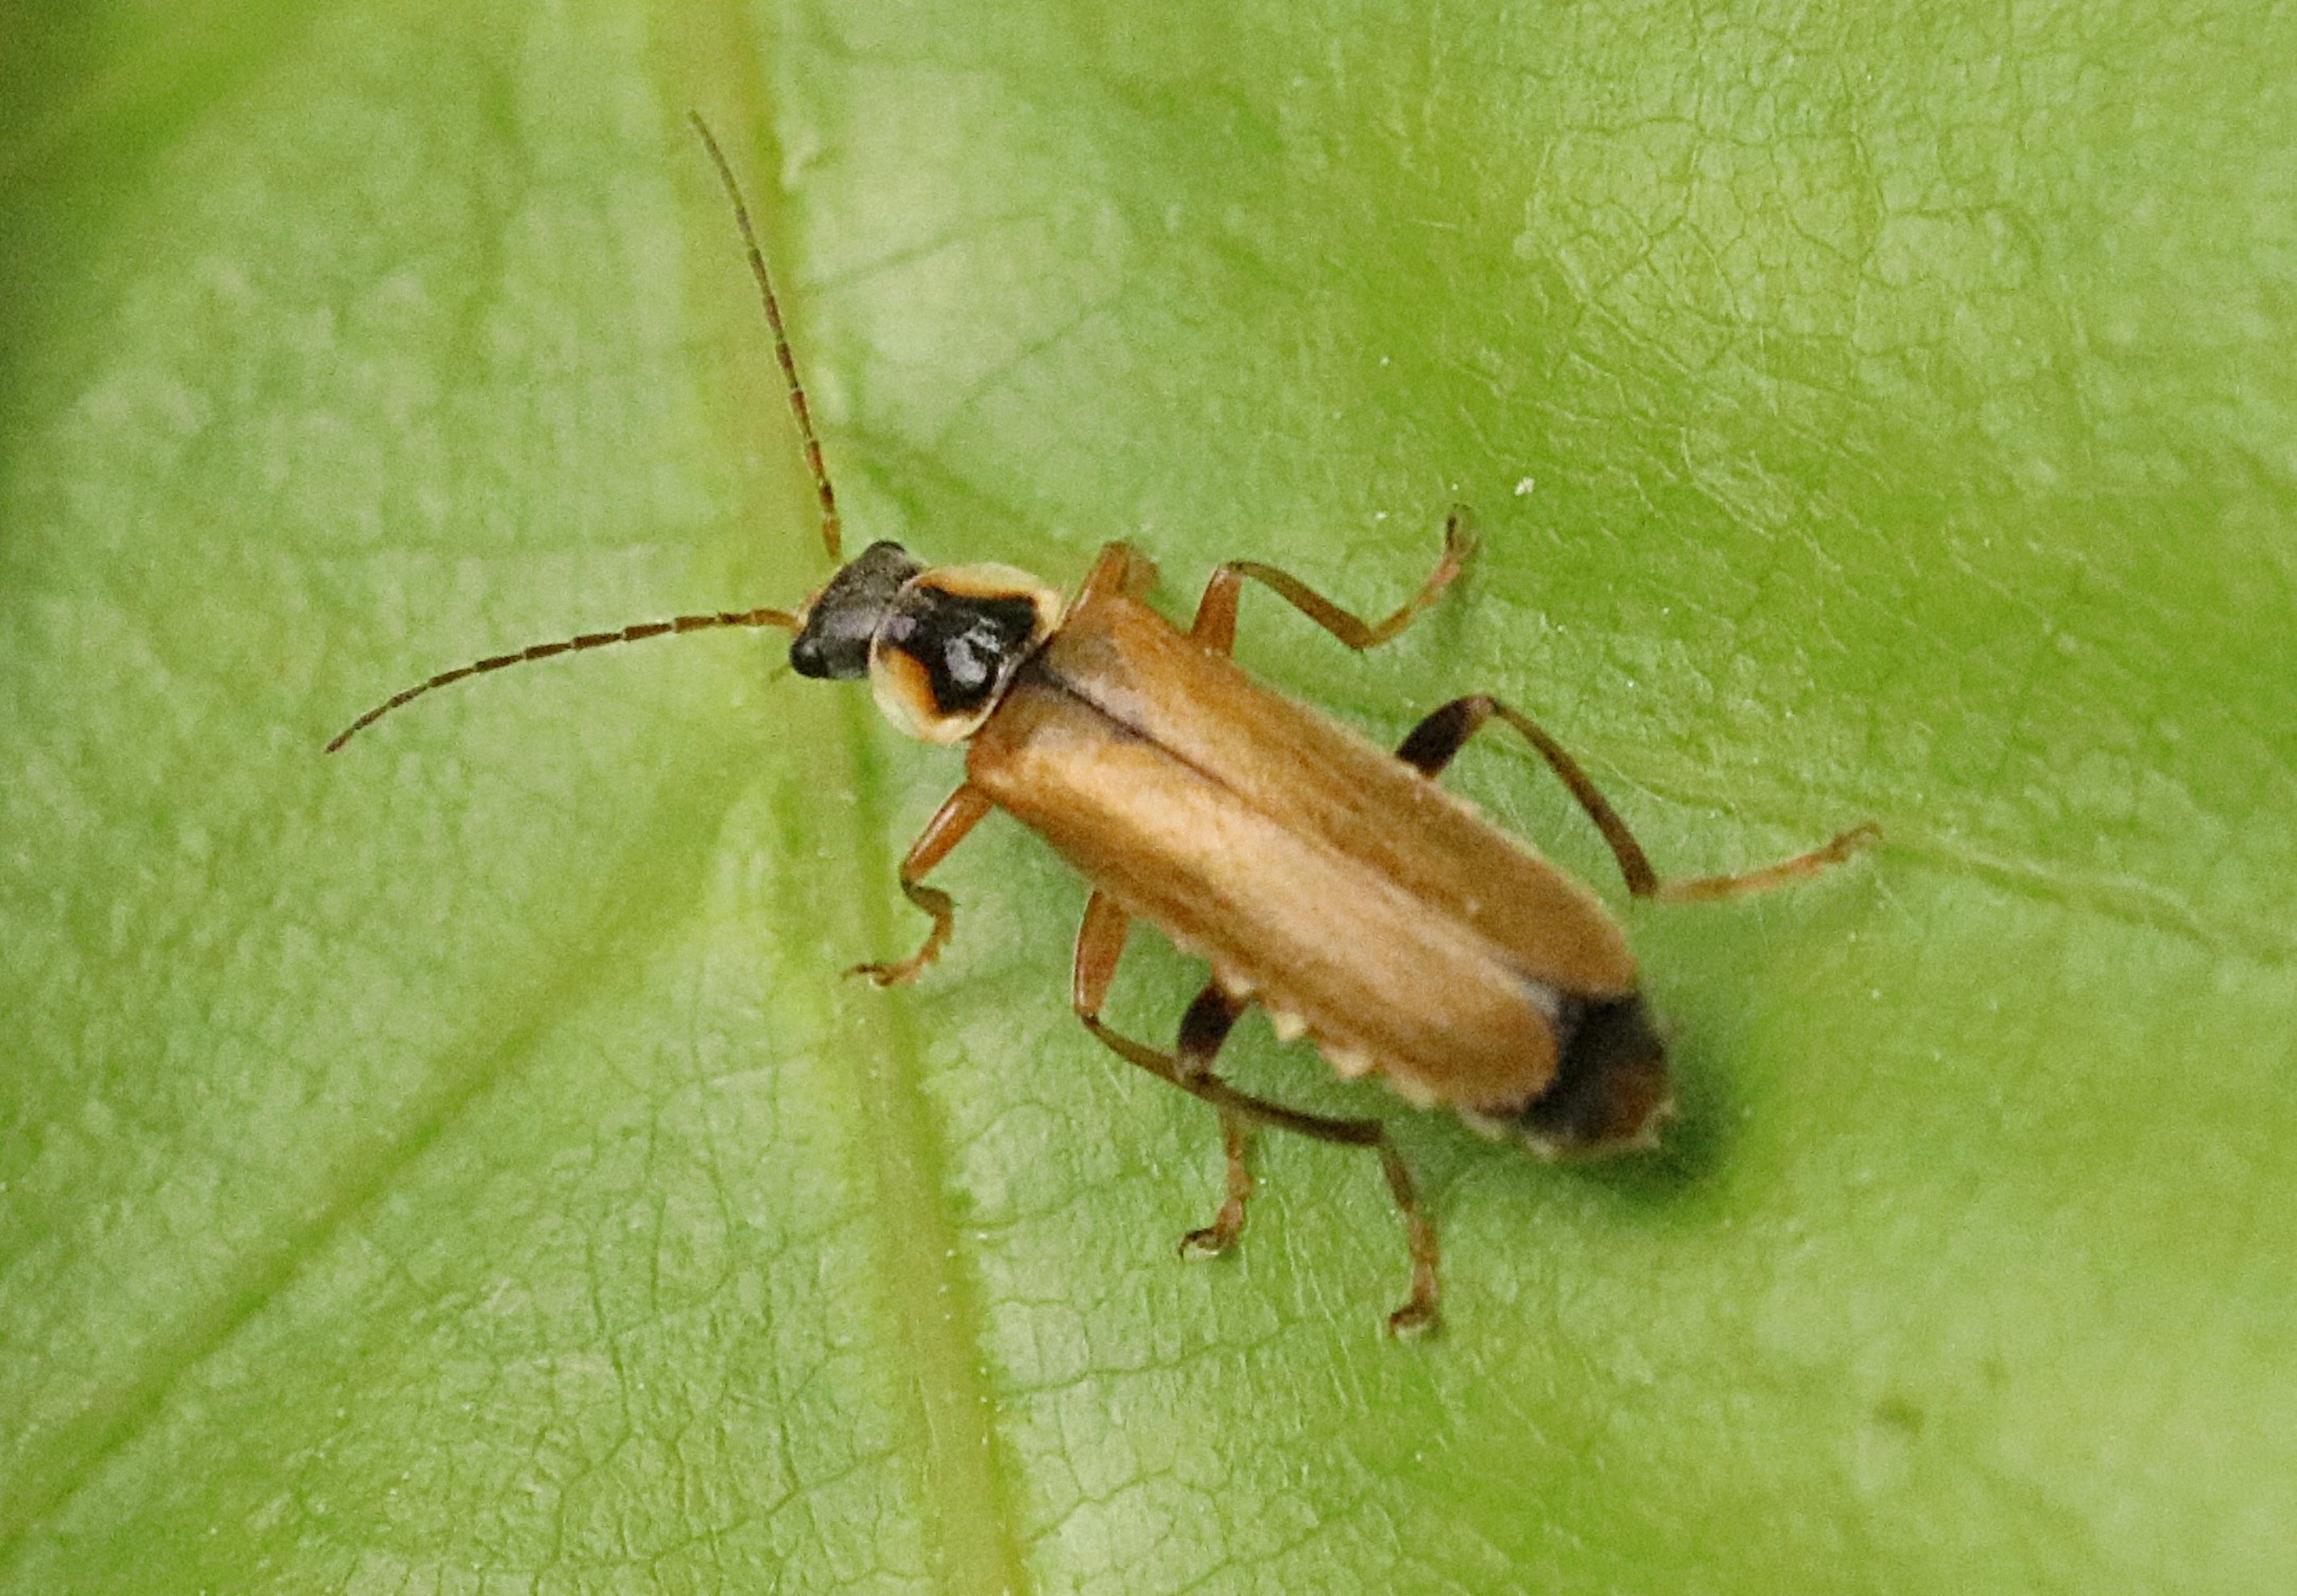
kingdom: Animalia
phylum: Arthropoda
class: Insecta
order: Coleoptera
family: Cantharidae
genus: Cantharis
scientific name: Cantharis decipiens
